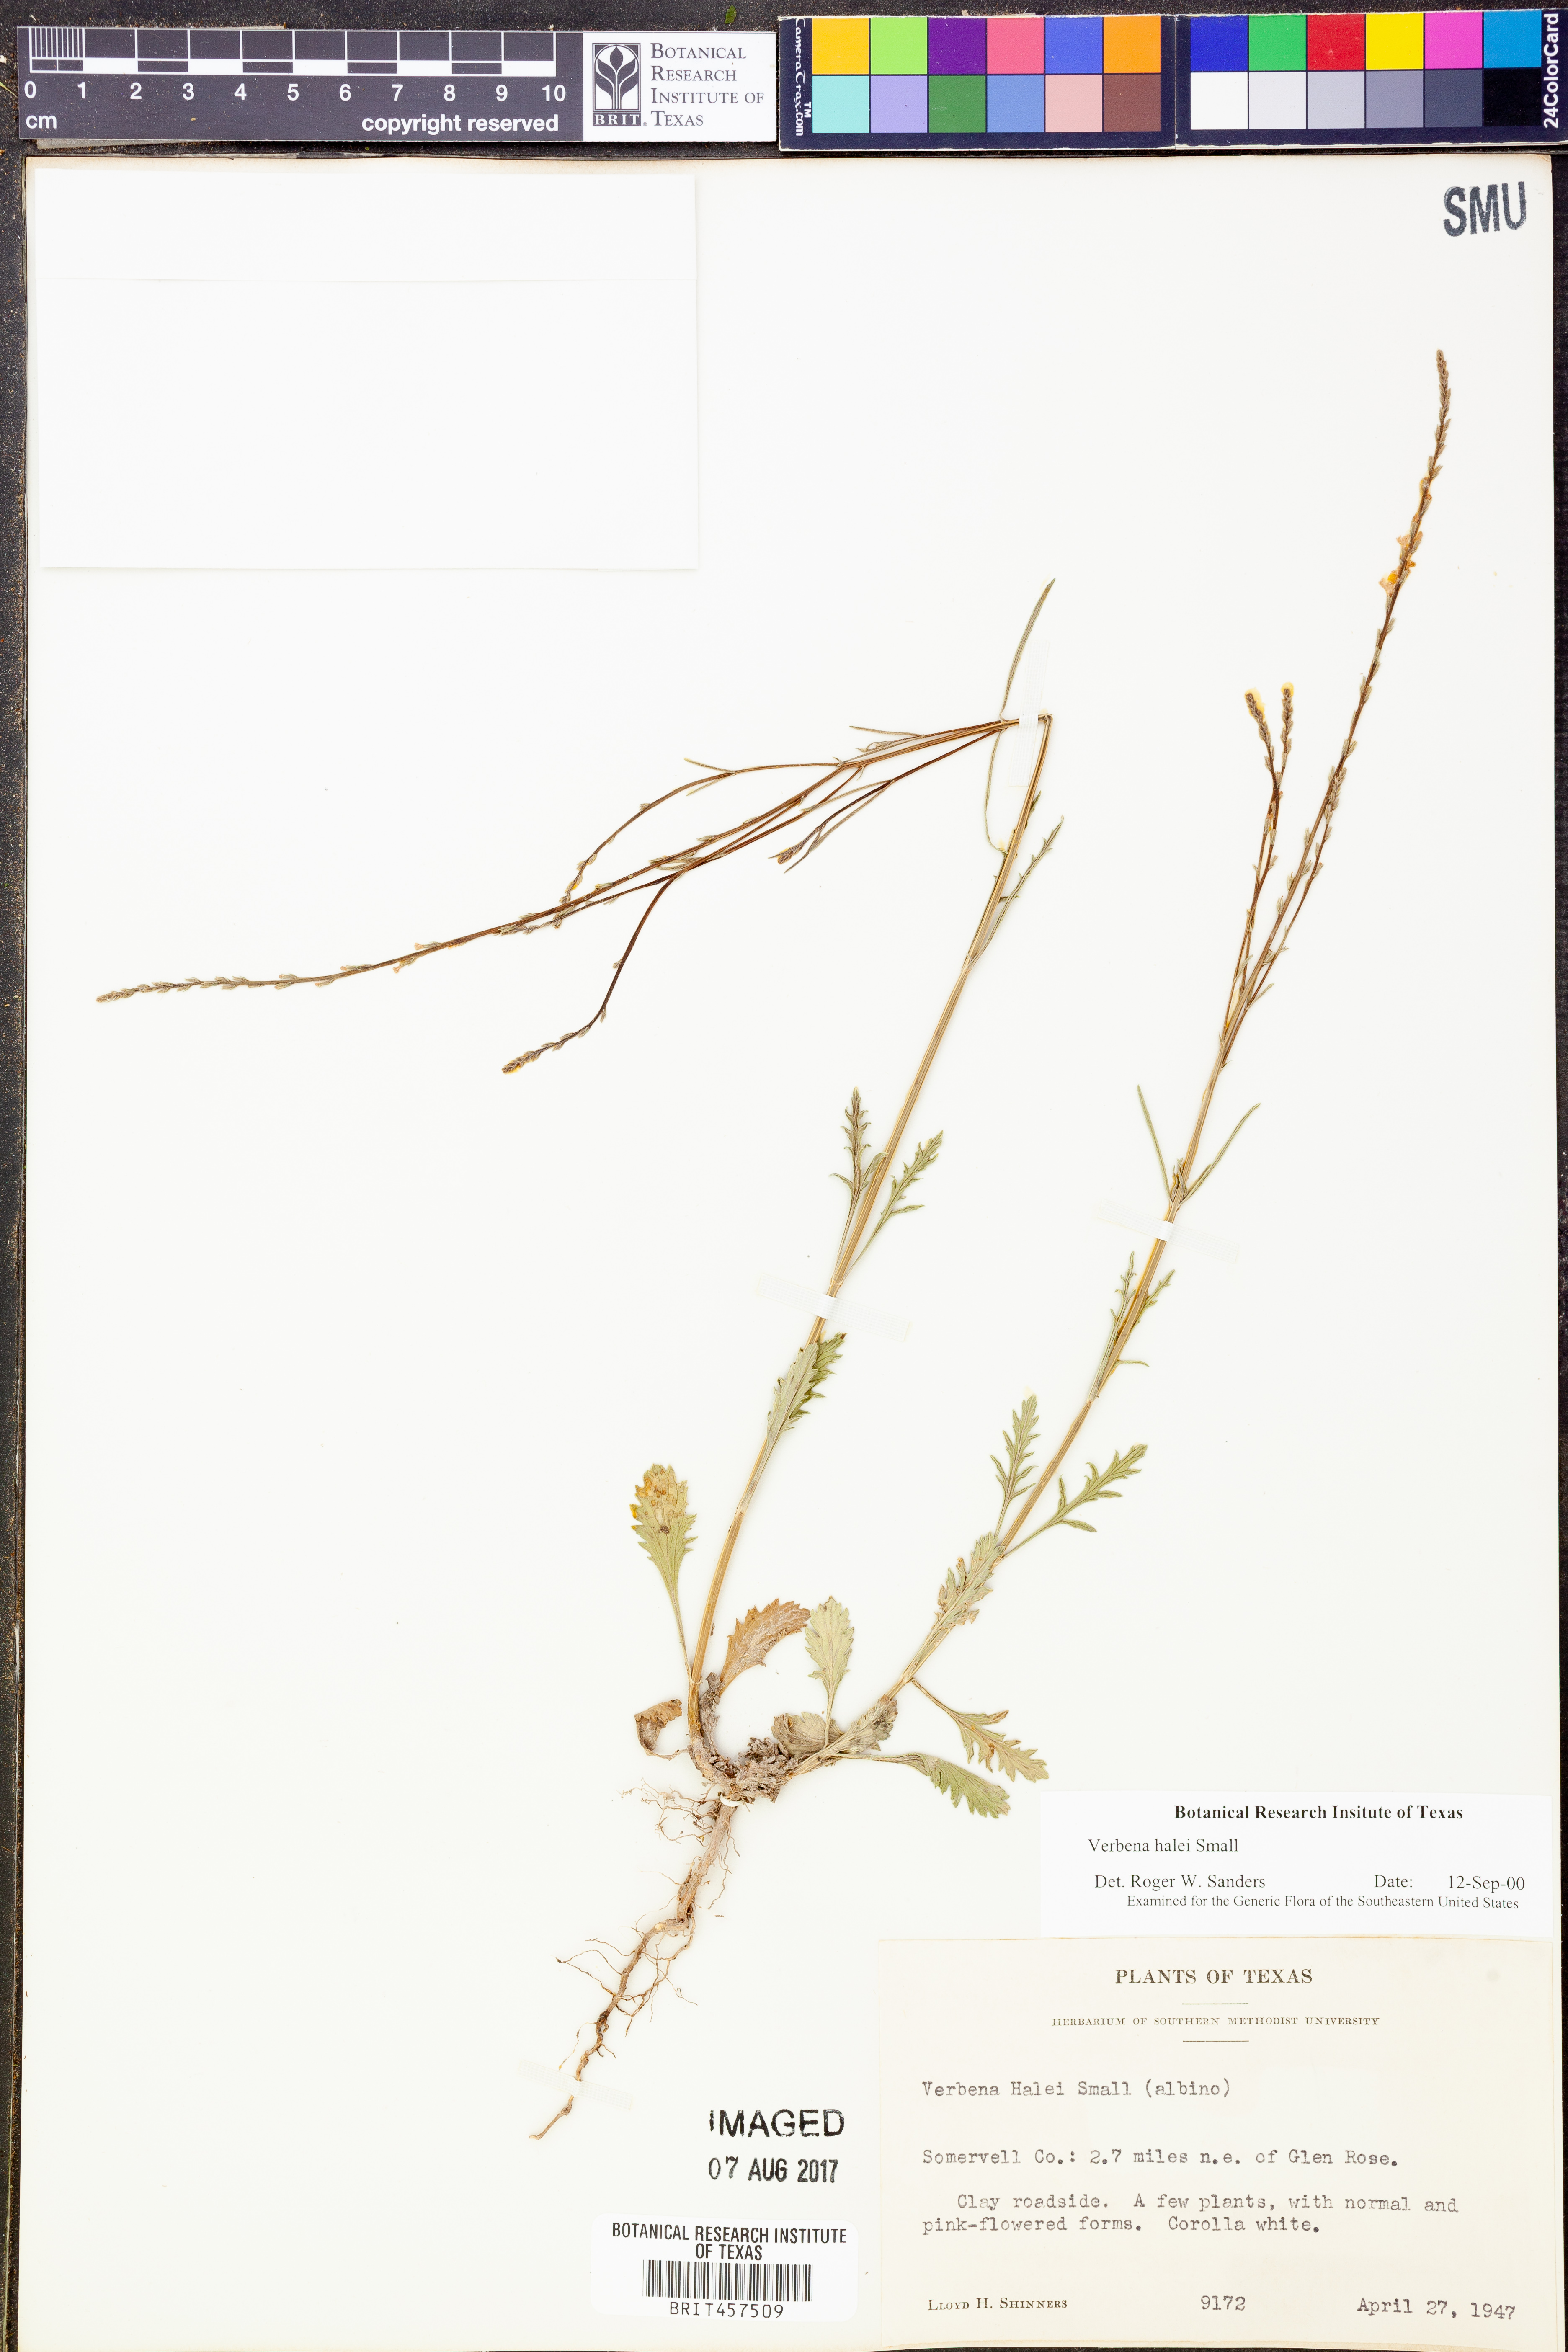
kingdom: Plantae
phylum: Tracheophyta
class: Magnoliopsida
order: Lamiales
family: Verbenaceae
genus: Verbena
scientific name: Verbena halei
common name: Texas vervain
